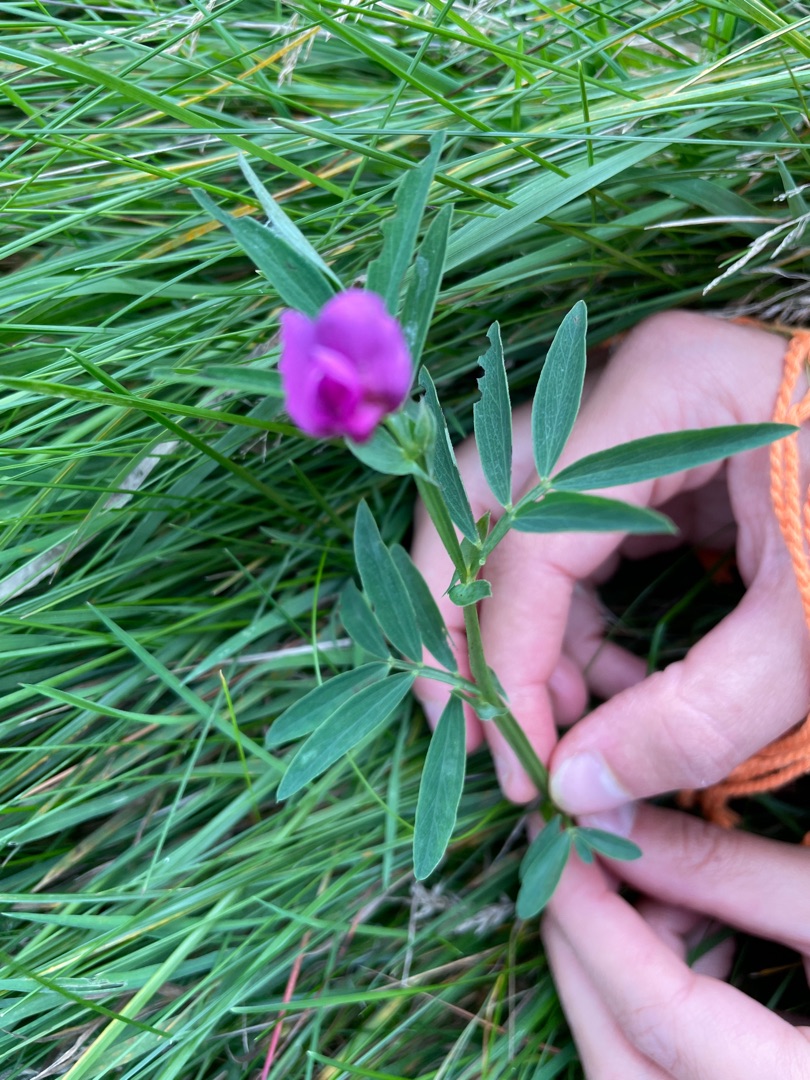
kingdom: Plantae
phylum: Tracheophyta
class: Magnoliopsida
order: Fabales
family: Fabaceae
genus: Lathyrus
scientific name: Lathyrus linifolius
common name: Krat-fladbælg
